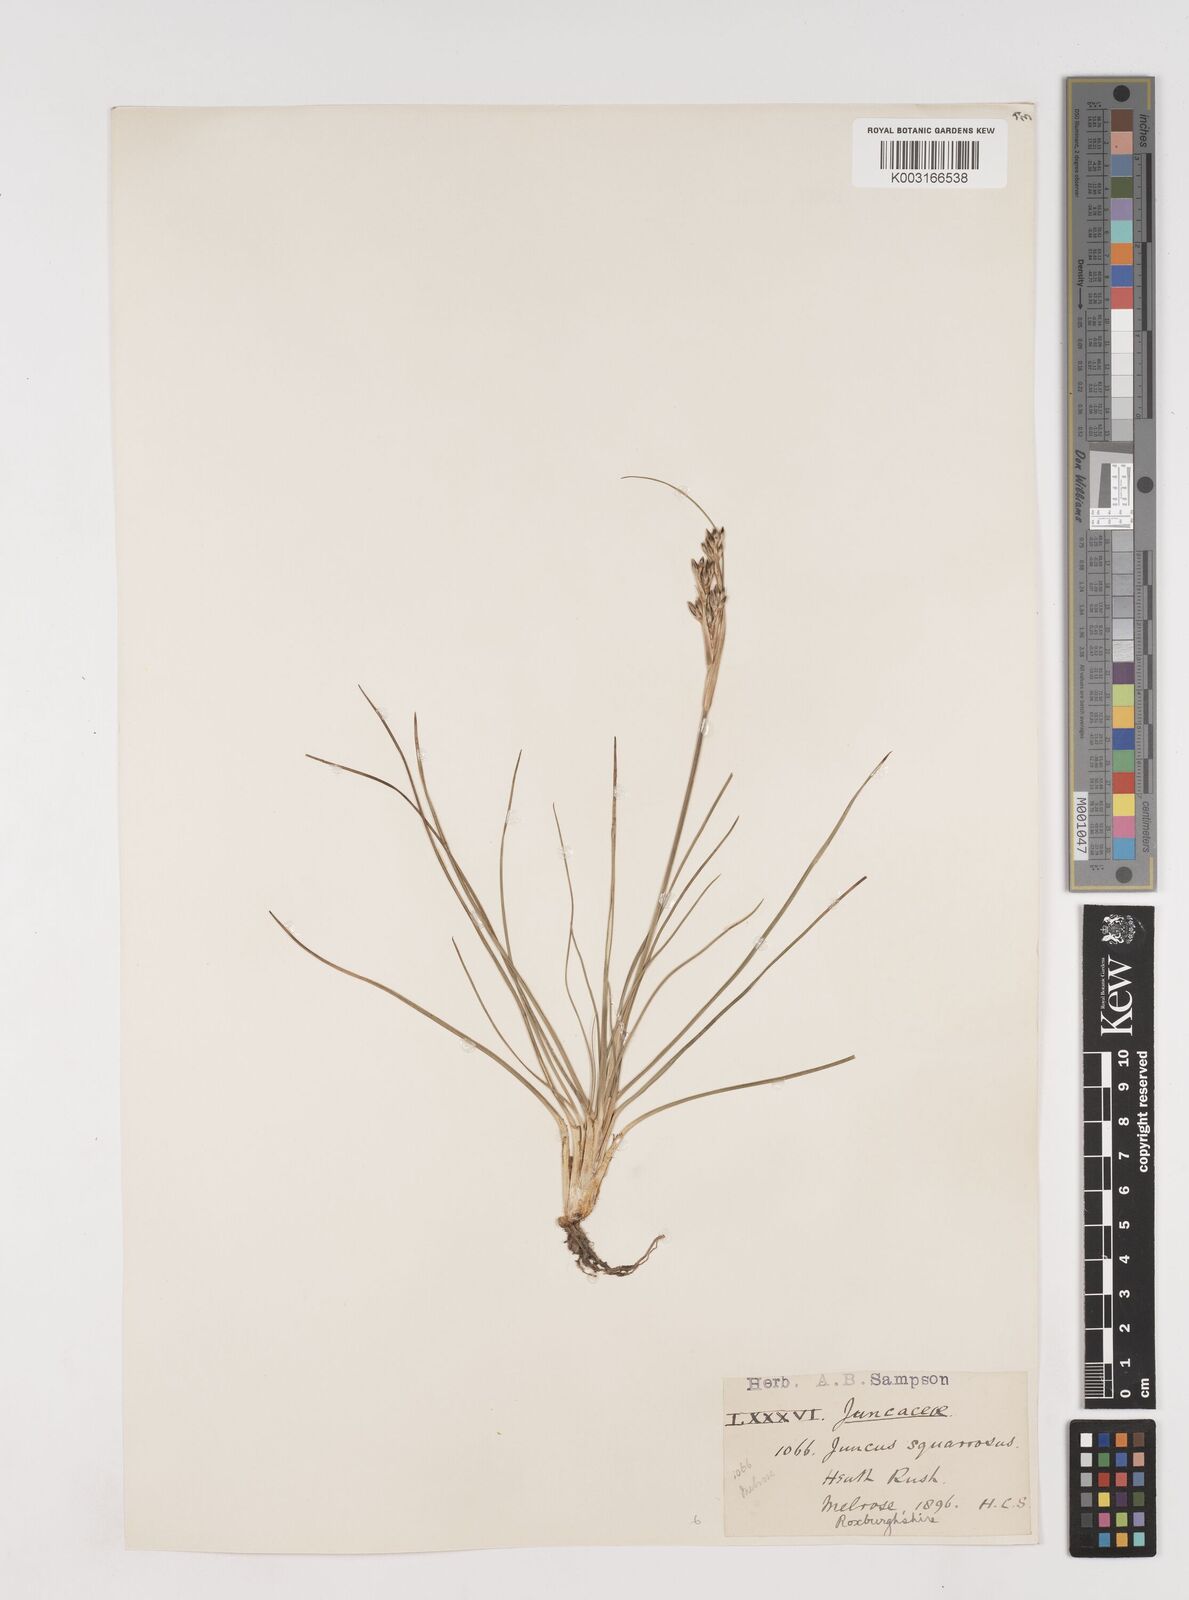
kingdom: Plantae
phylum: Tracheophyta
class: Liliopsida
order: Poales
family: Juncaceae
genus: Juncus
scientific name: Juncus squarrosus
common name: Heath rush
